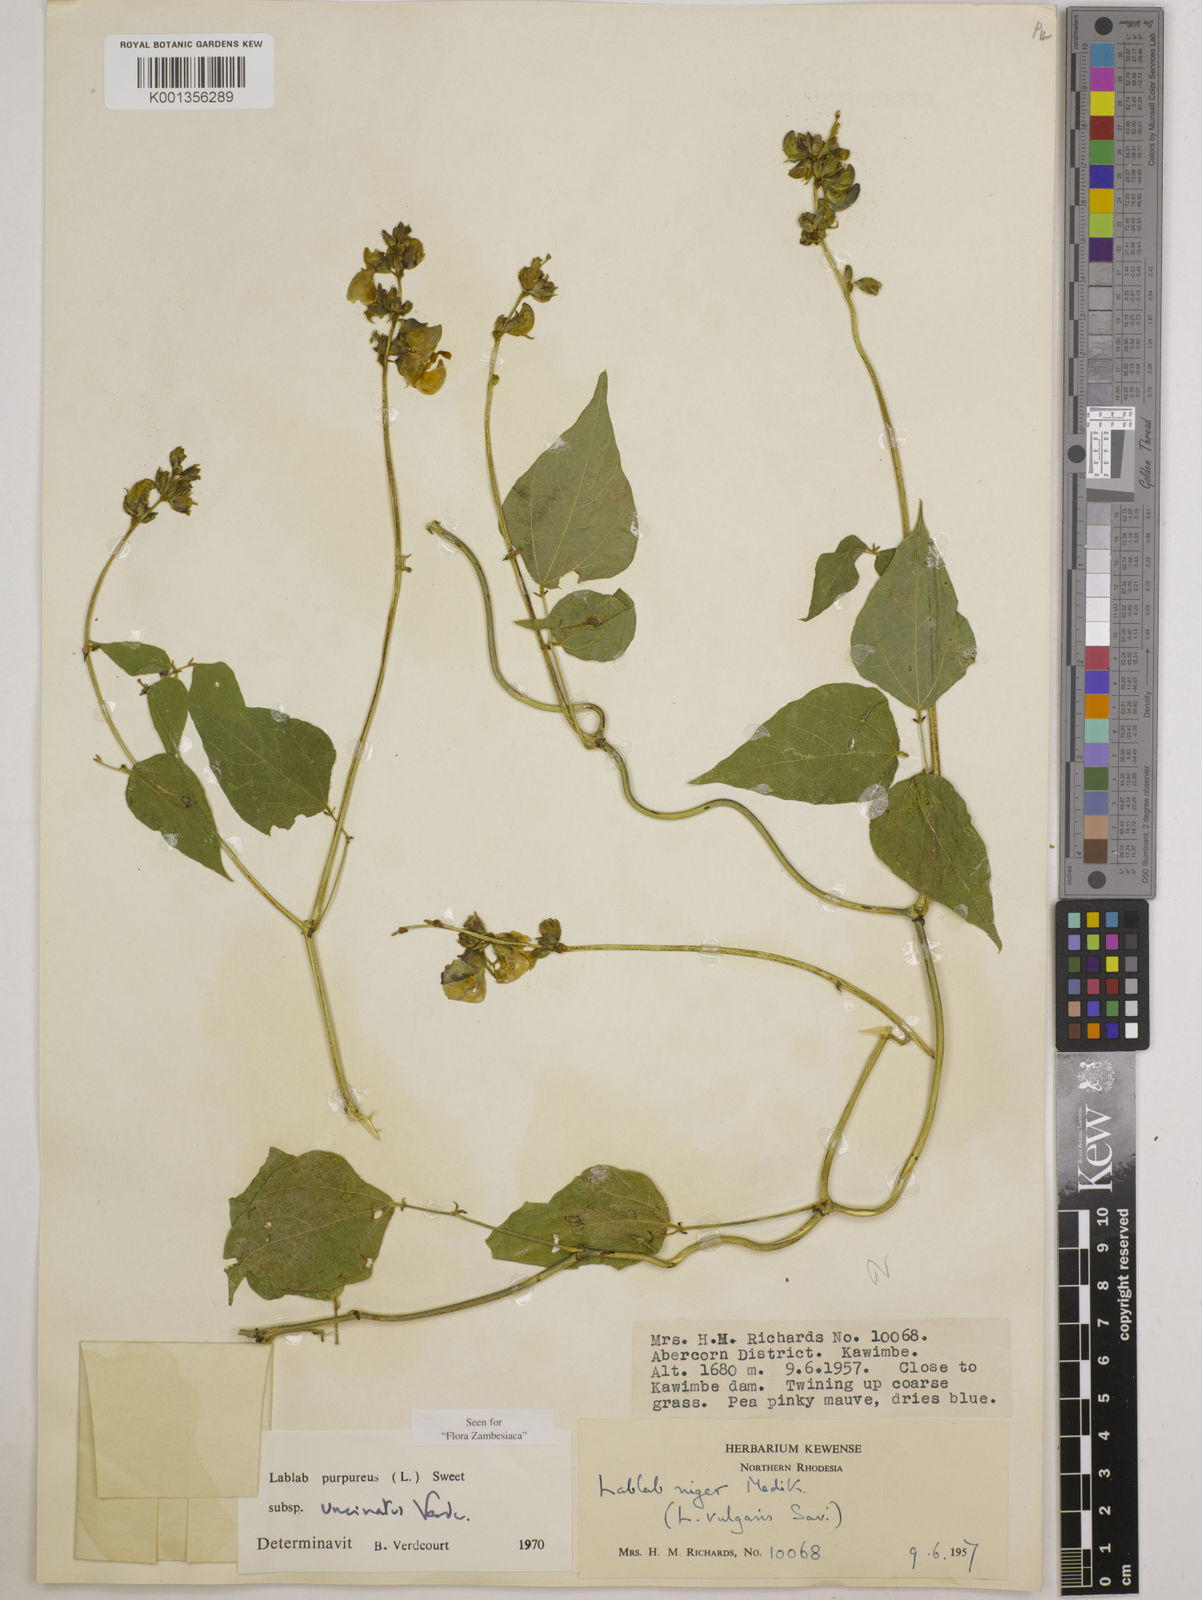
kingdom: Plantae
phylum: Tracheophyta
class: Magnoliopsida
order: Fabales
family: Fabaceae
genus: Lablab
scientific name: Lablab
